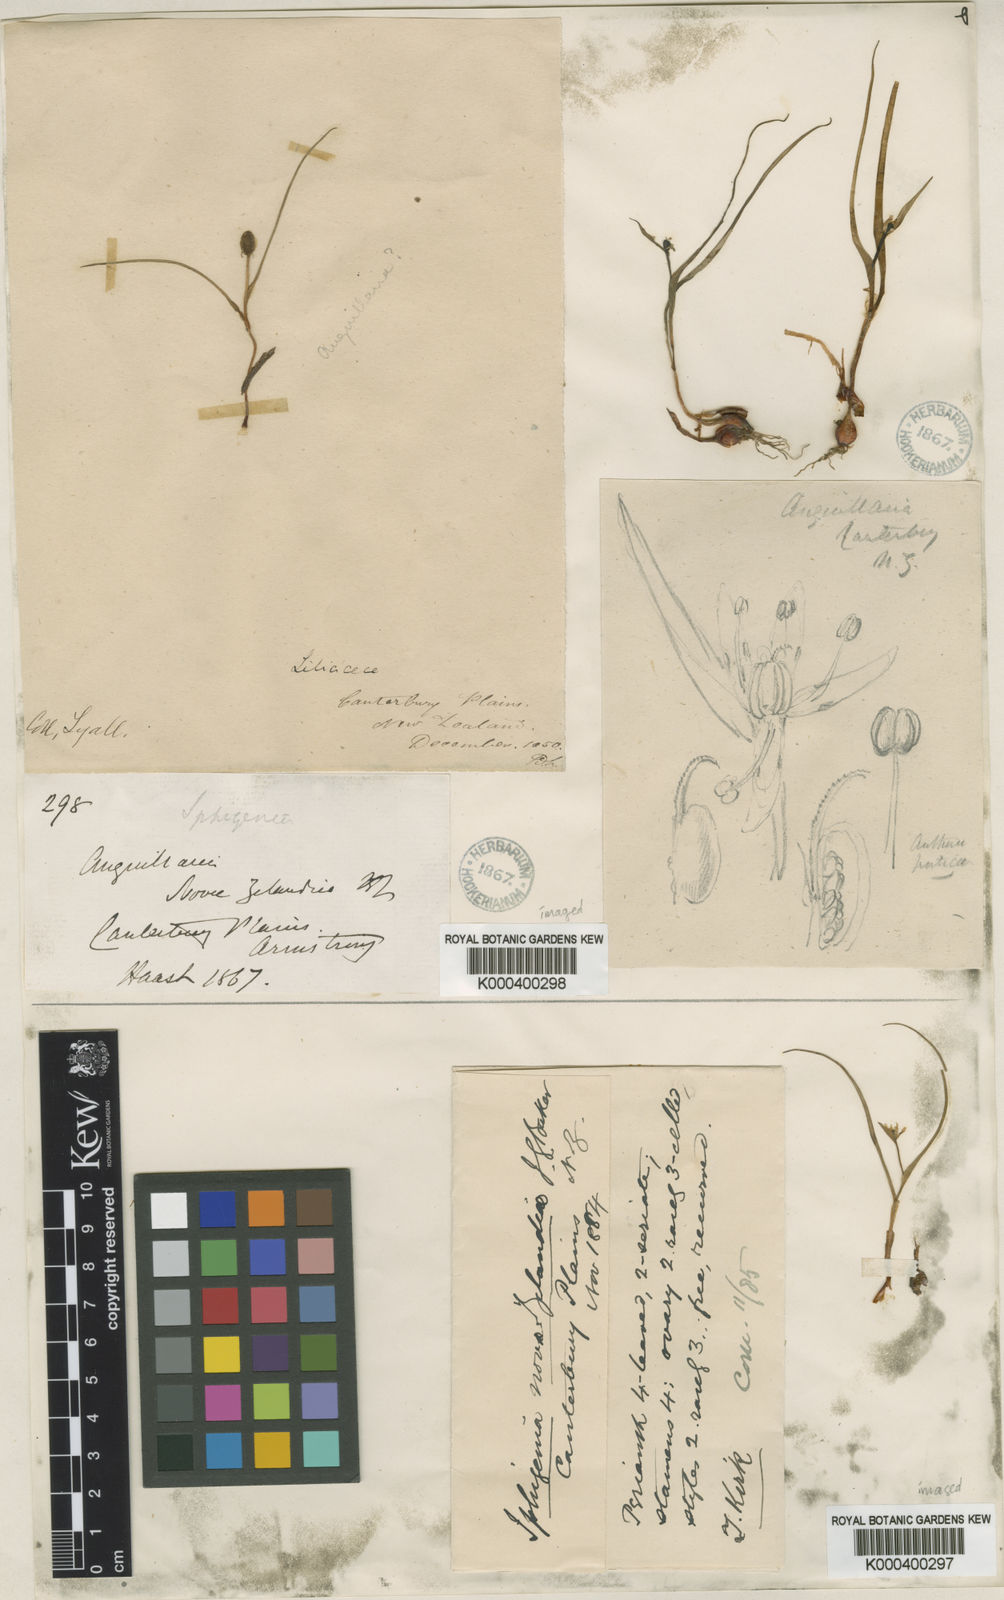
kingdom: Plantae
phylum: Tracheophyta
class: Liliopsida
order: Liliales
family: Colchicaceae
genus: Wurmbea
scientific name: Wurmbea novae-zelandiae
